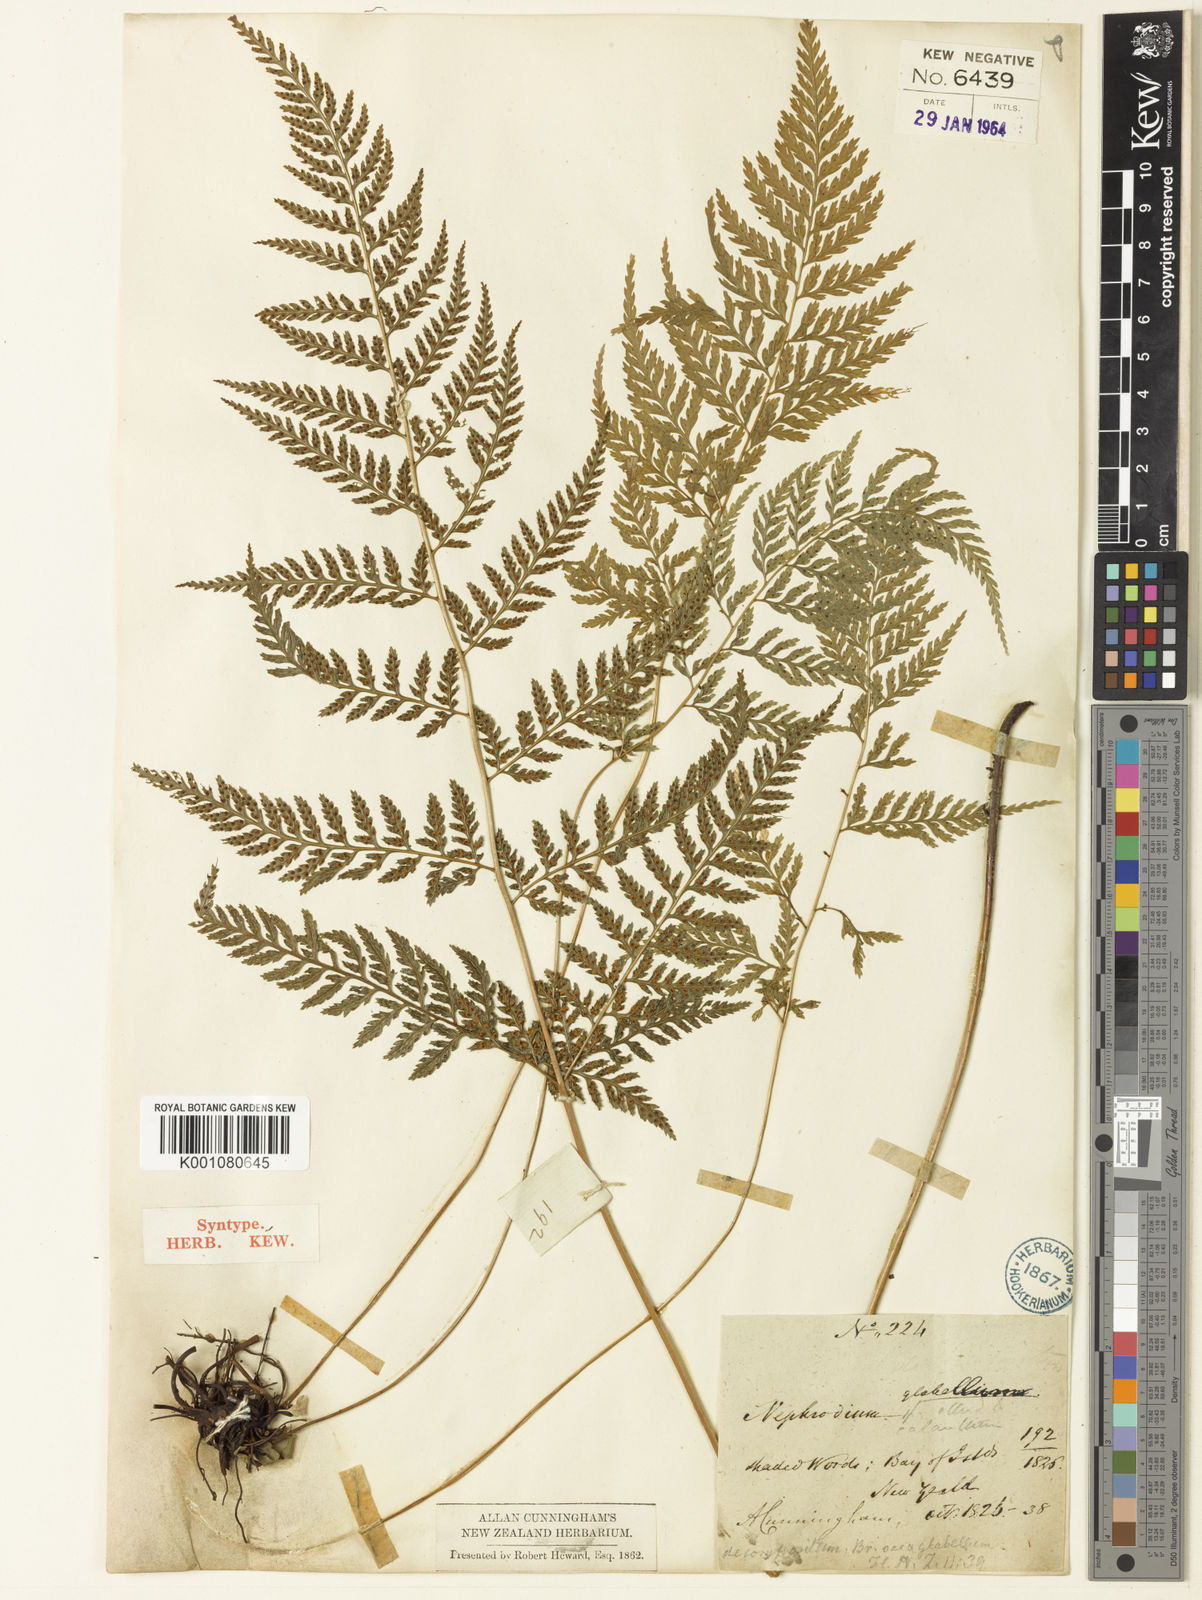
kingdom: Plantae
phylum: Tracheophyta
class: Polypodiopsida
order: Polypodiales
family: Dryopteridaceae
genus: Parapolystichum
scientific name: Parapolystichum glabellum
